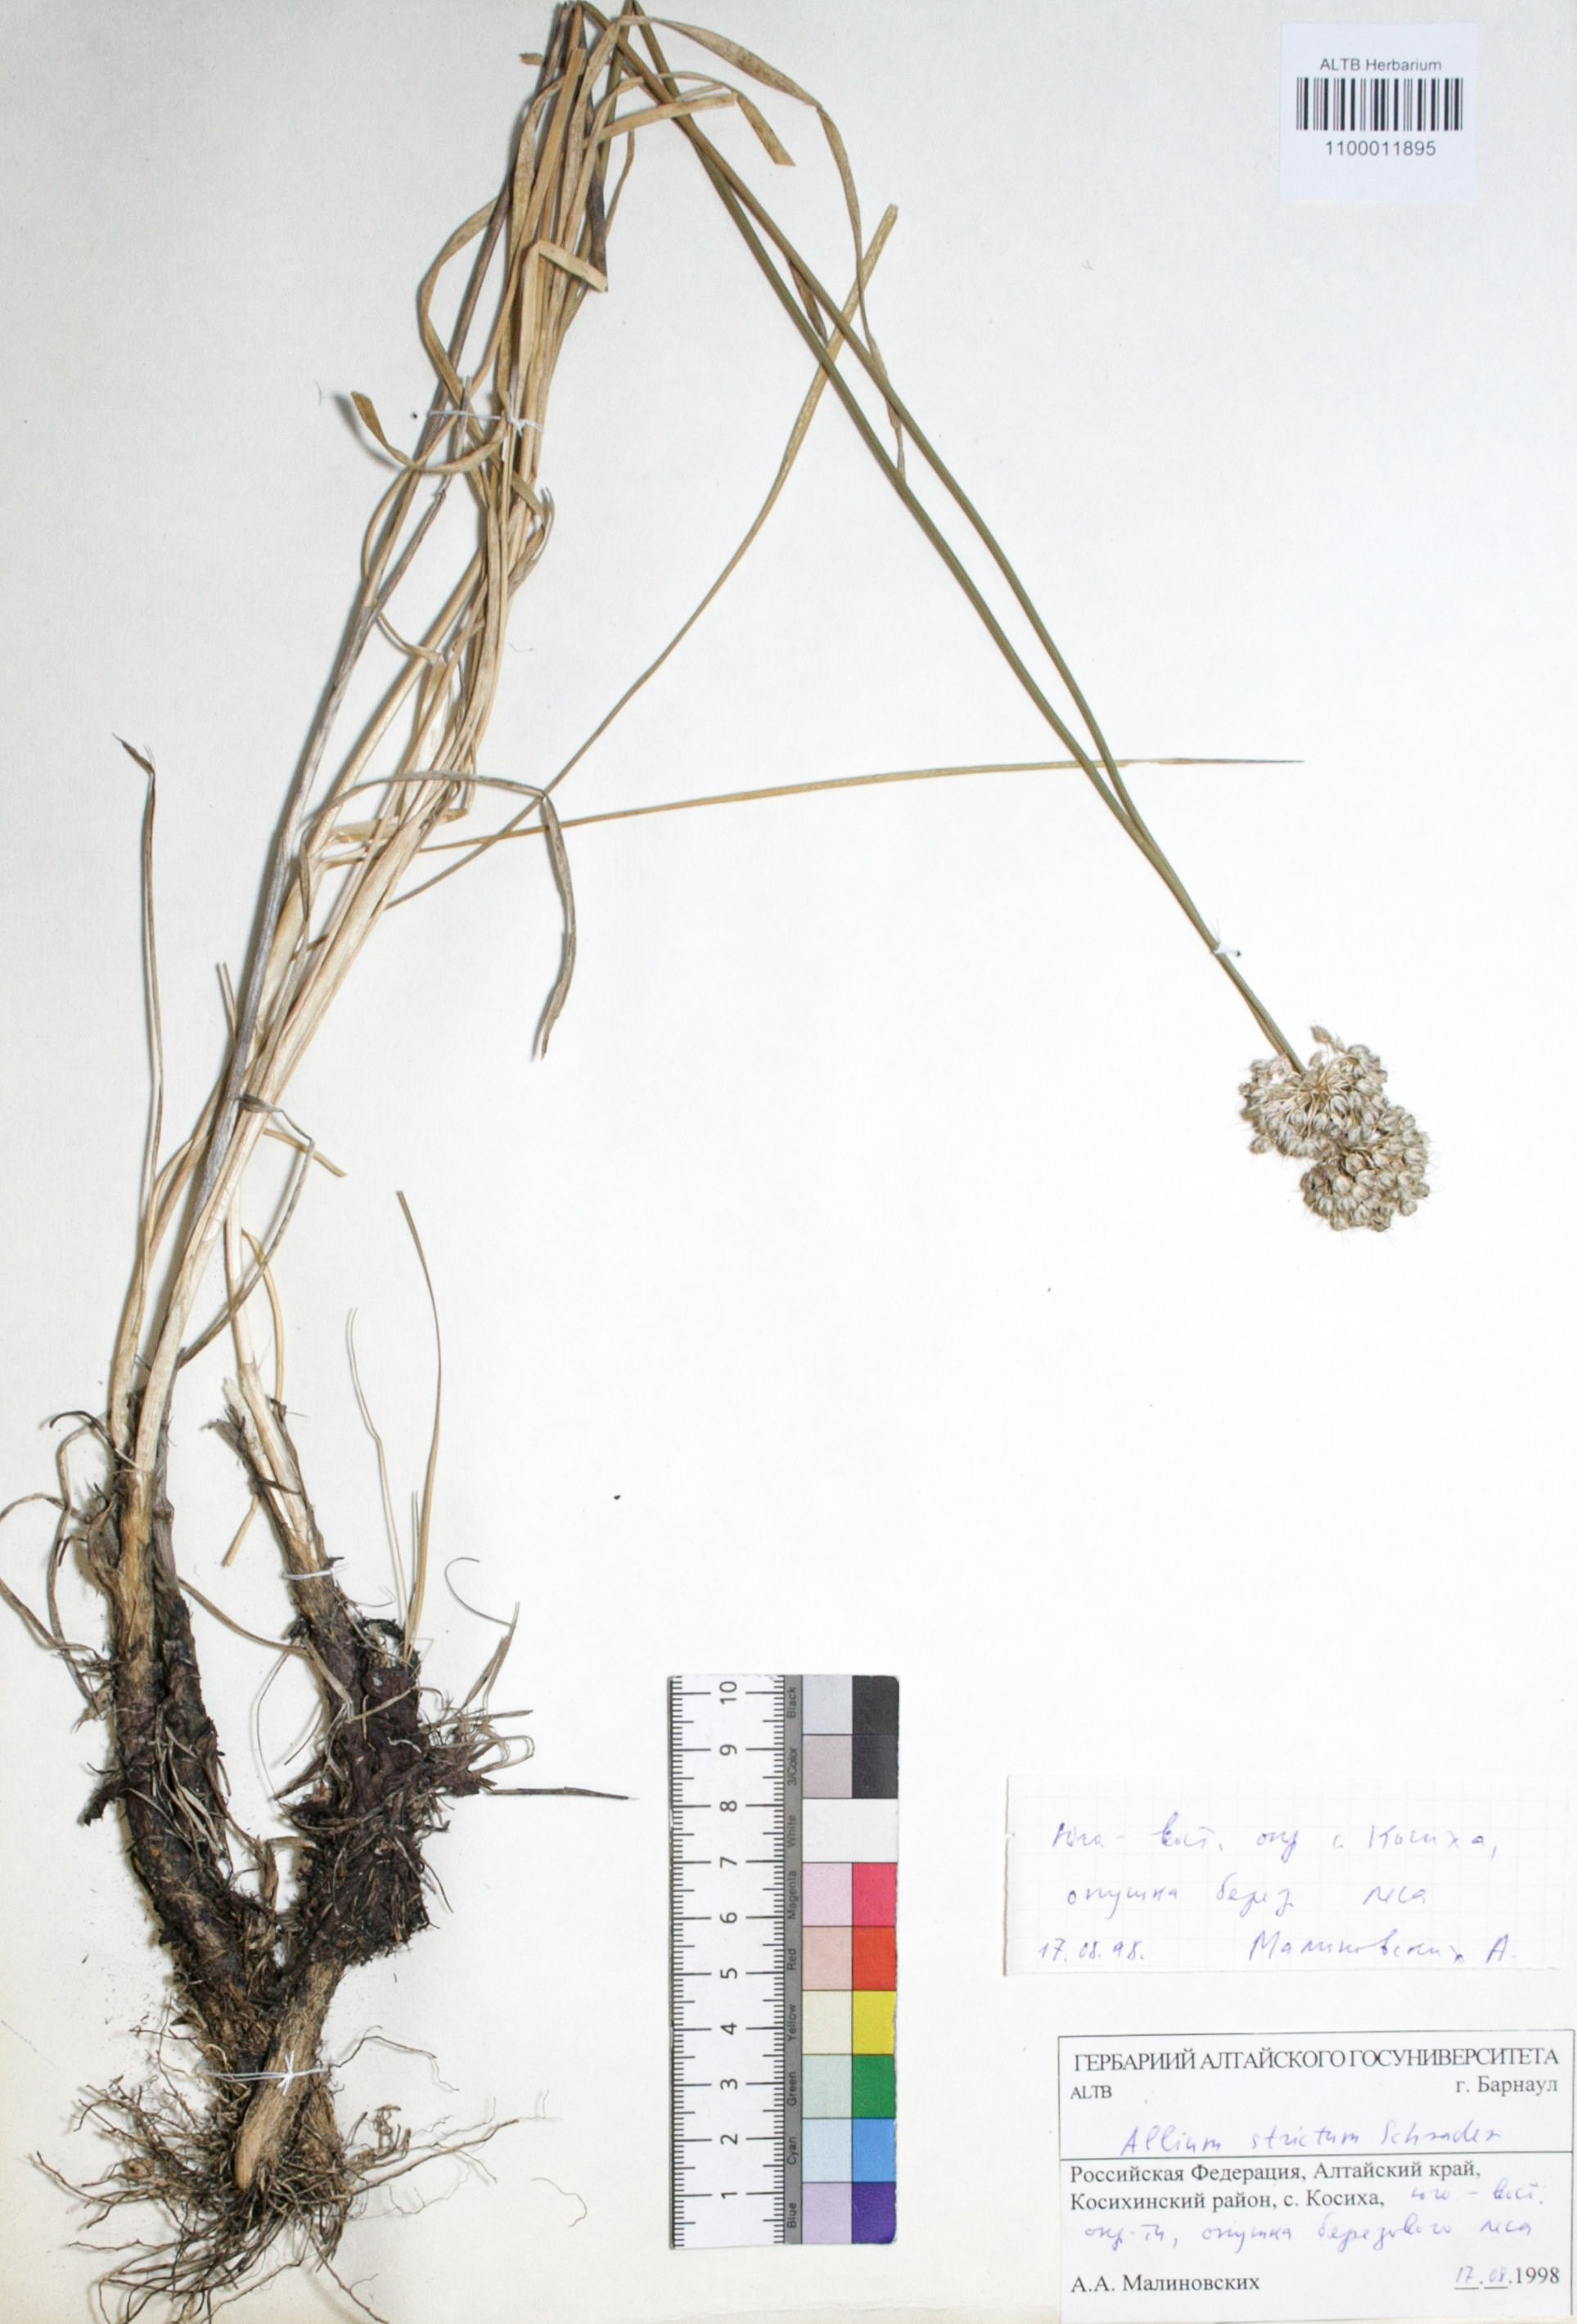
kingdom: Plantae
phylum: Tracheophyta
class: Liliopsida
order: Asparagales
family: Amaryllidaceae
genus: Allium
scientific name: Allium strictum
